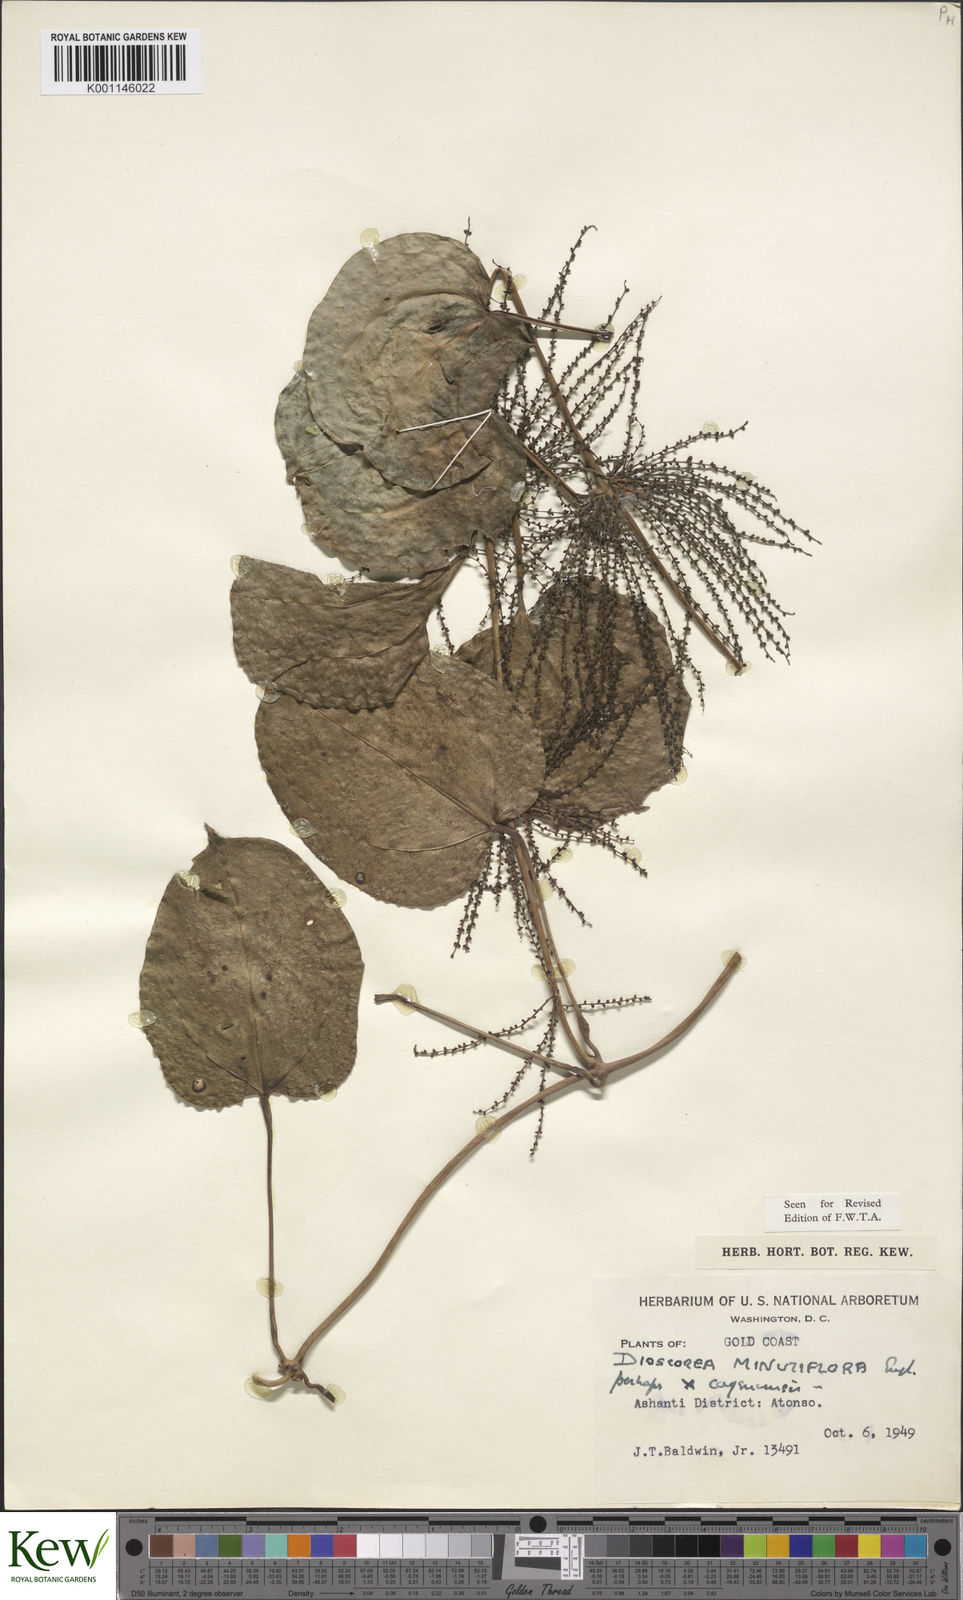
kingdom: Plantae
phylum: Tracheophyta
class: Liliopsida
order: Dioscoreales
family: Dioscoreaceae
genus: Dioscorea
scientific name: Dioscorea minutiflora
